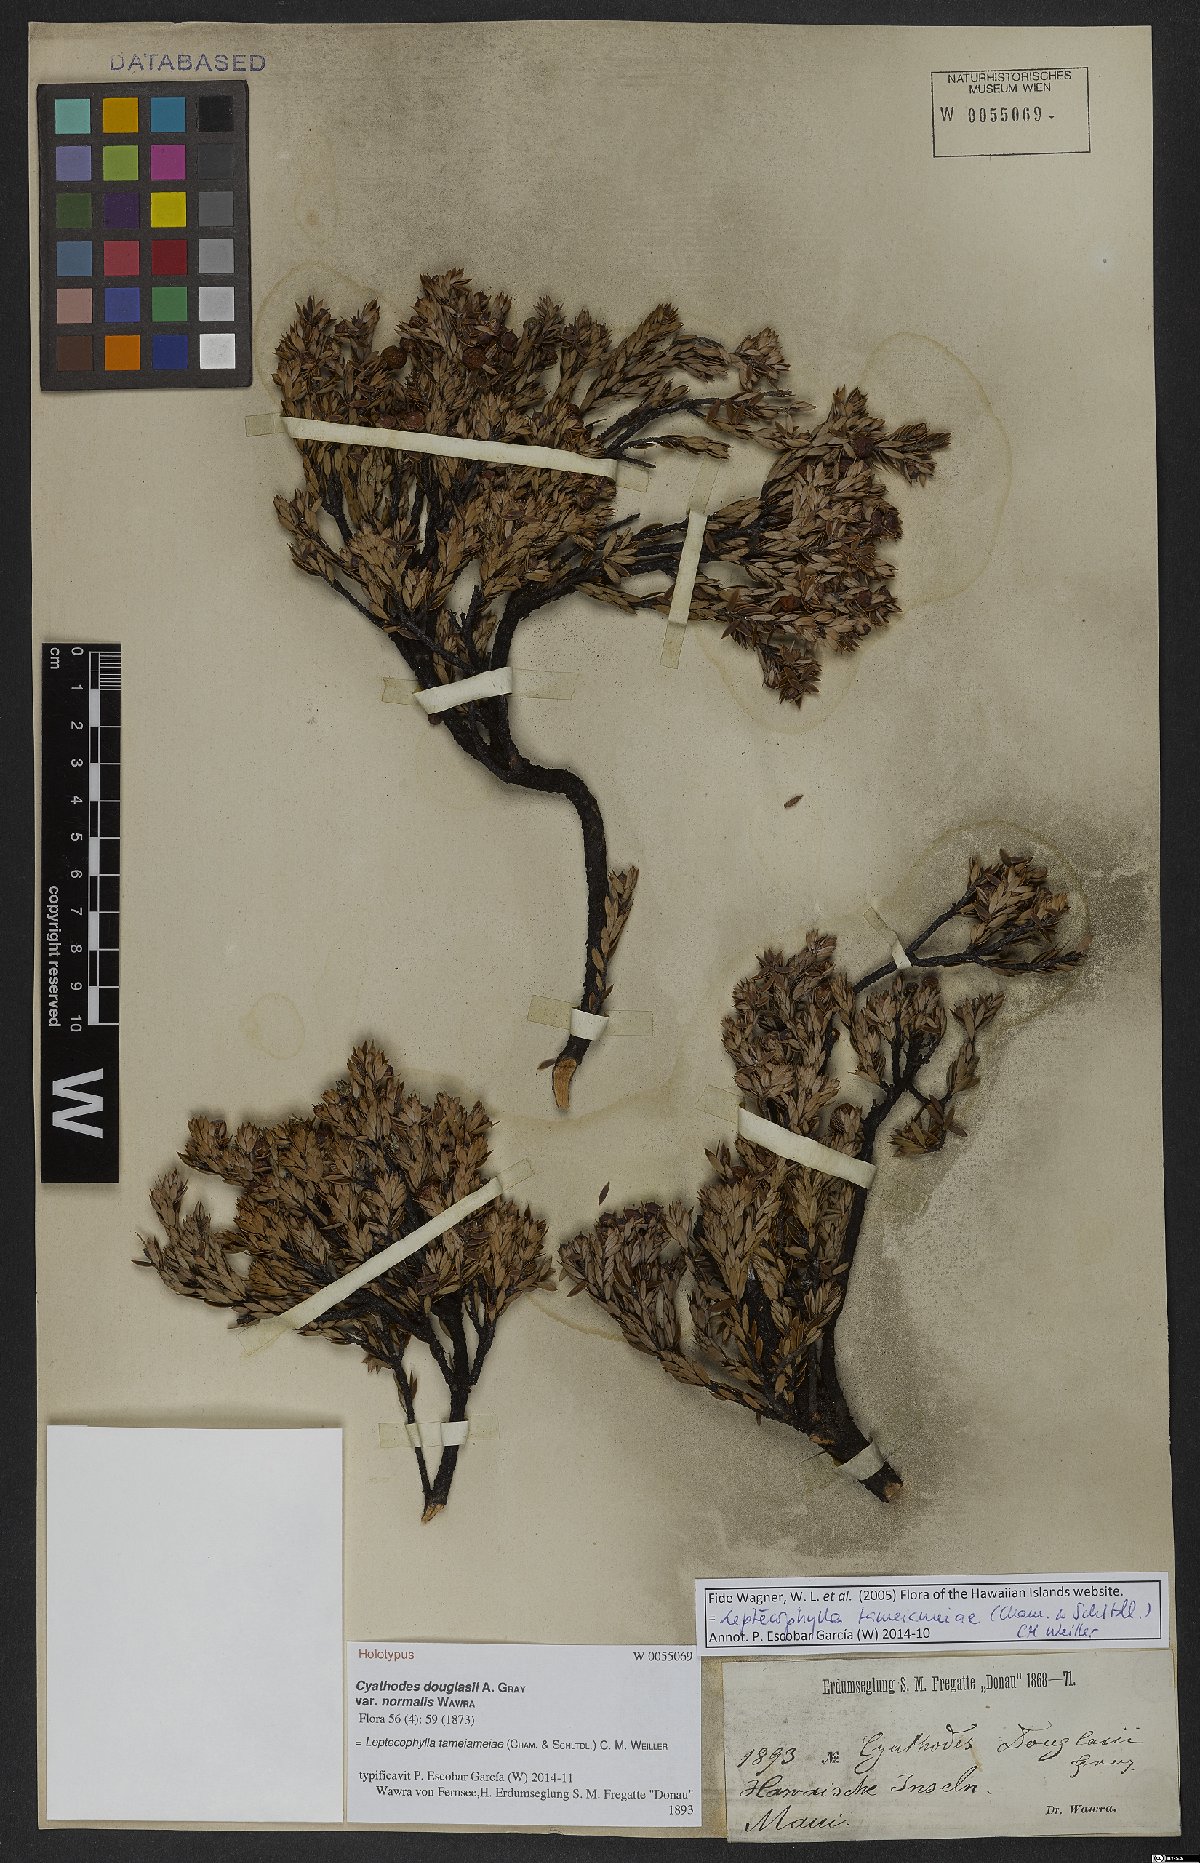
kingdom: Plantae
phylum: Tracheophyta
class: Magnoliopsida
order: Ericales
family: Ericaceae
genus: Leptecophylla
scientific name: Leptecophylla tameiameiae
